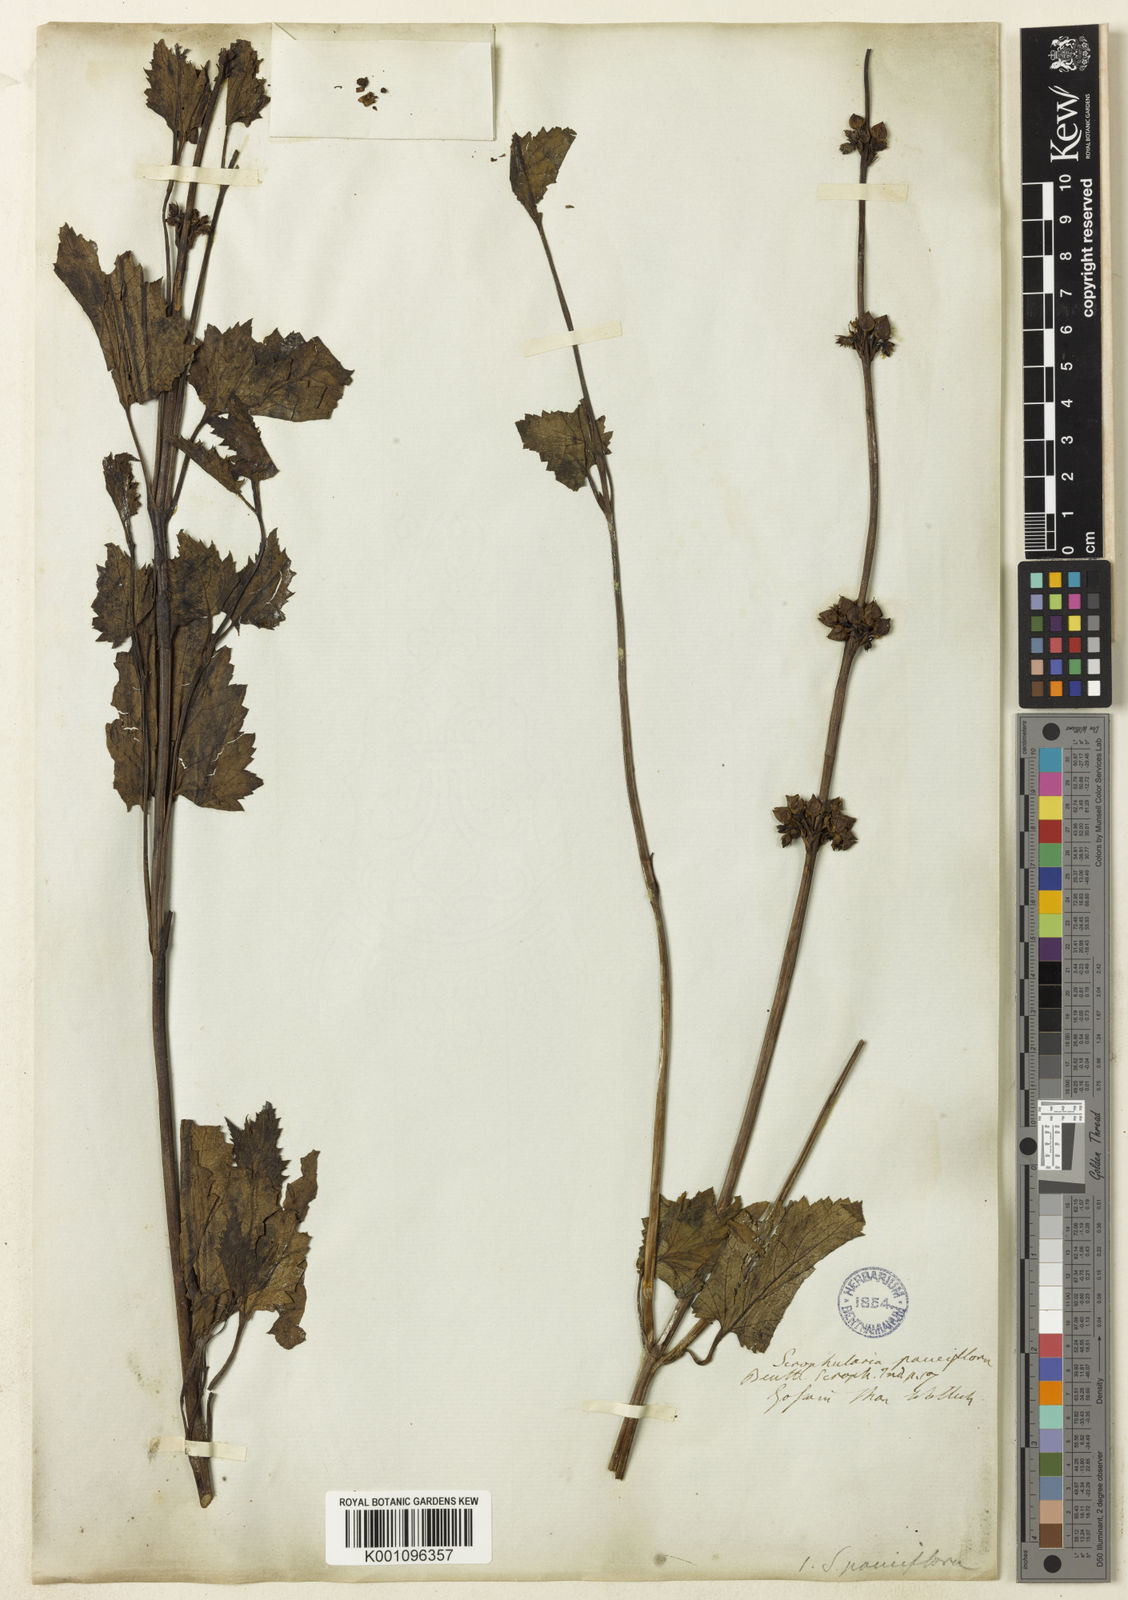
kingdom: Plantae
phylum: Tracheophyta
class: Magnoliopsida
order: Lamiales
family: Scrophulariaceae
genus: Scrophularia
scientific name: Scrophularia pauciflora
